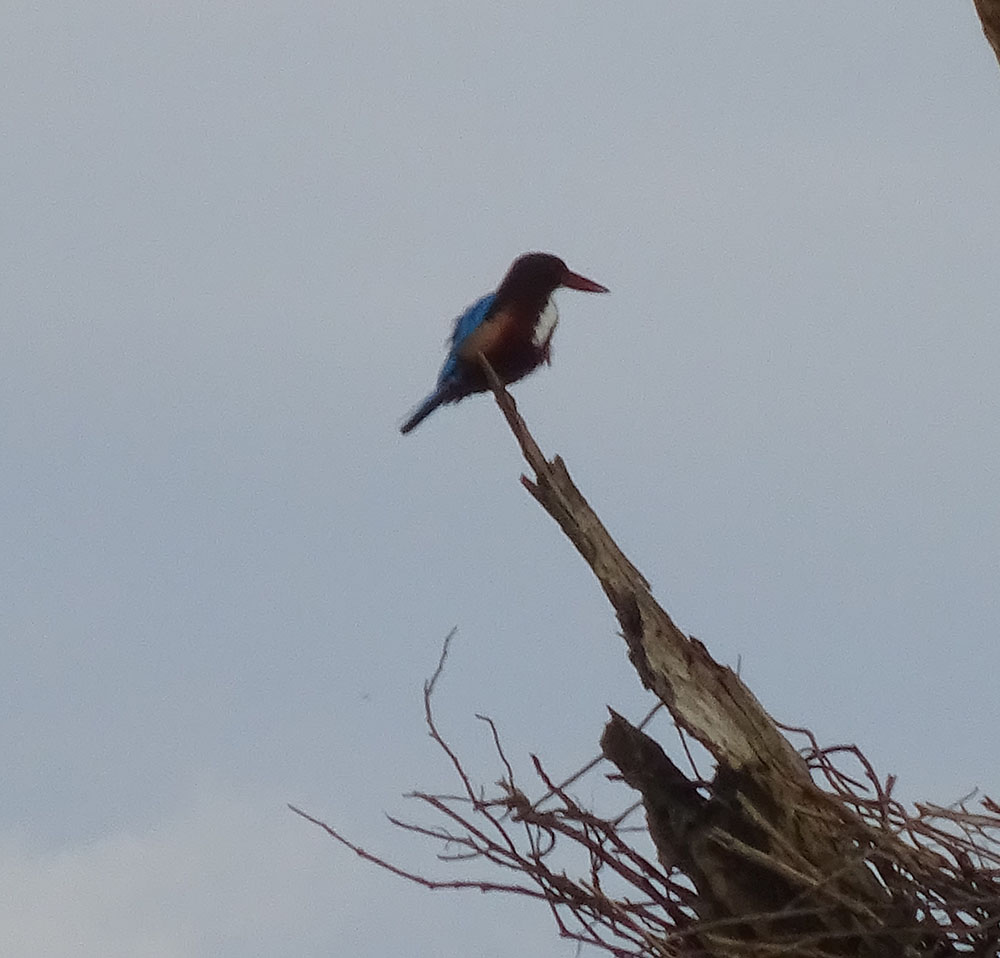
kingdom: Animalia
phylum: Chordata
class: Aves
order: Coraciiformes
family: Alcedinidae
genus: Halcyon
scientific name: Halcyon smyrnensis
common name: White-throated kingfisher
